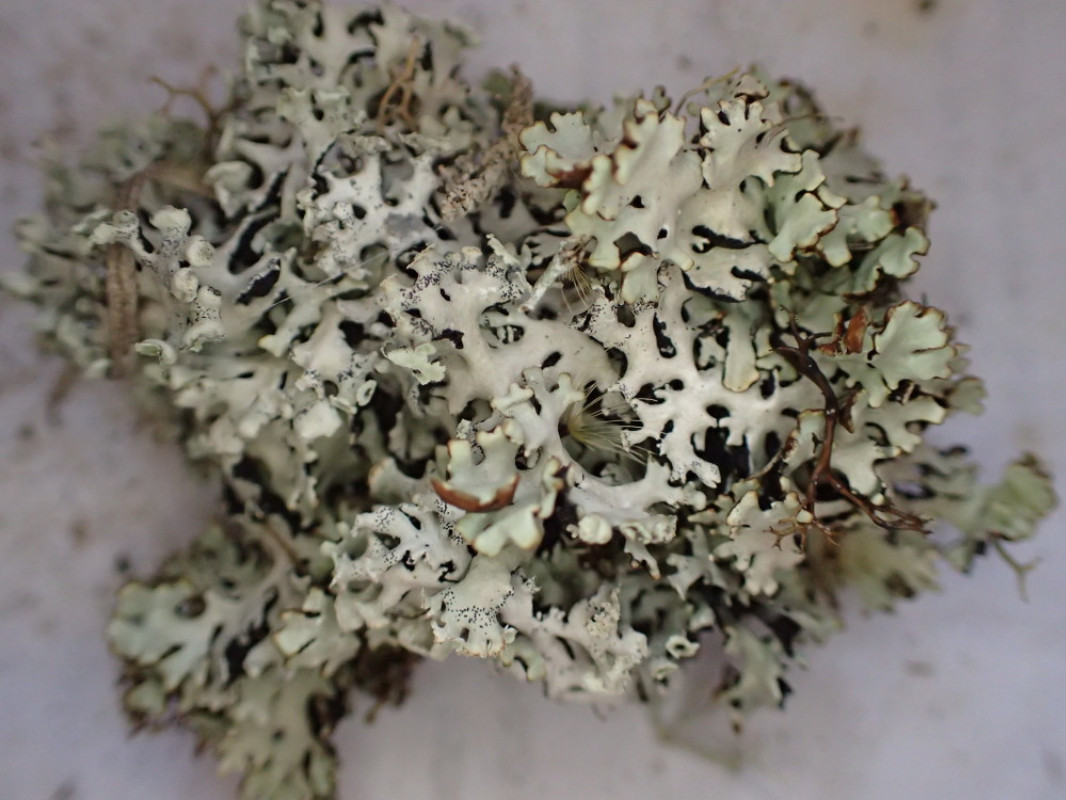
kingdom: Fungi
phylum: Ascomycota
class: Lecanoromycetes
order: Lecanorales
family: Parmeliaceae
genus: Hypogymnia
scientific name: Hypogymnia physodes
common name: almindelig kvistlav
